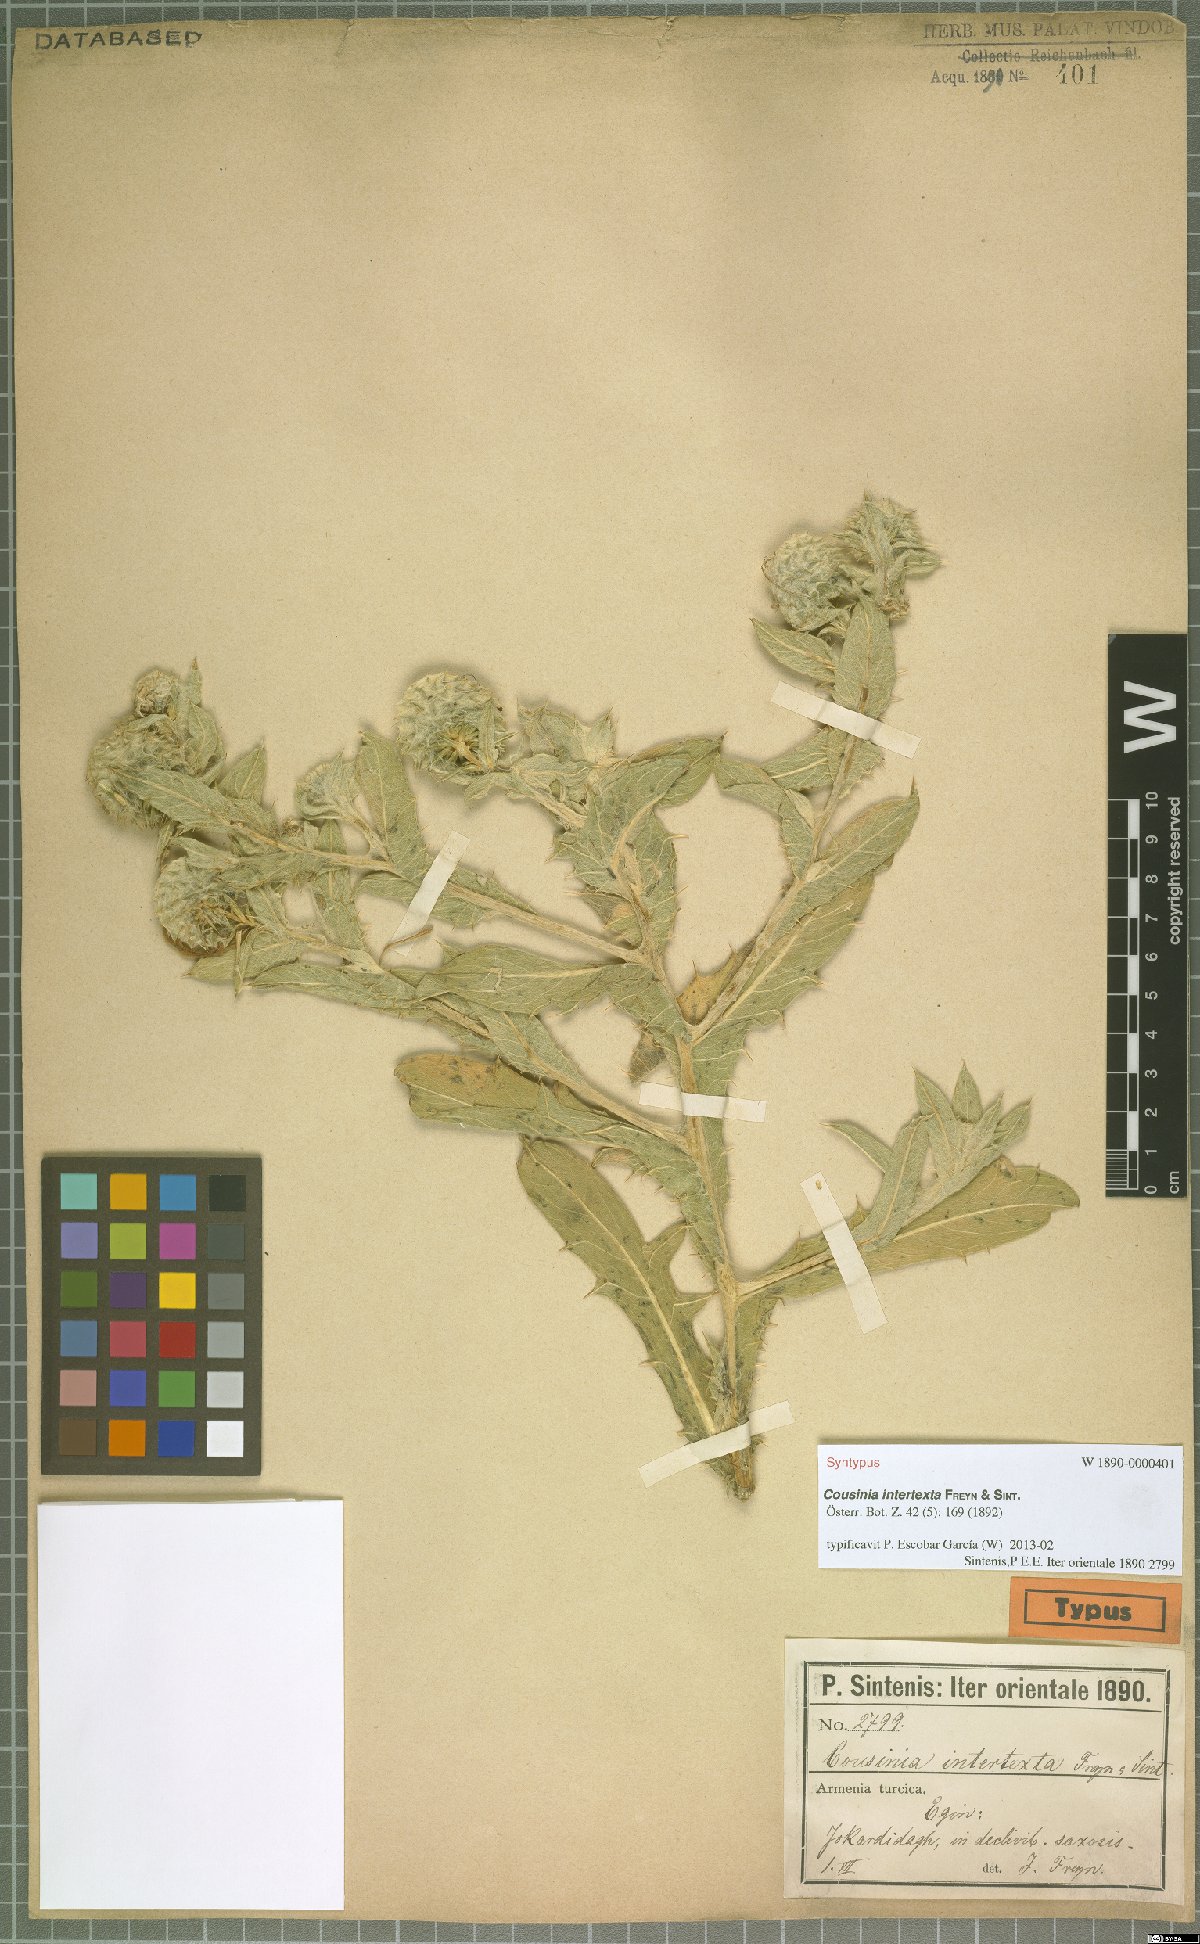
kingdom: Plantae
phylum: Tracheophyta
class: Magnoliopsida
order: Asterales
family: Asteraceae
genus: Cousinia
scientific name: Cousinia intertexta
